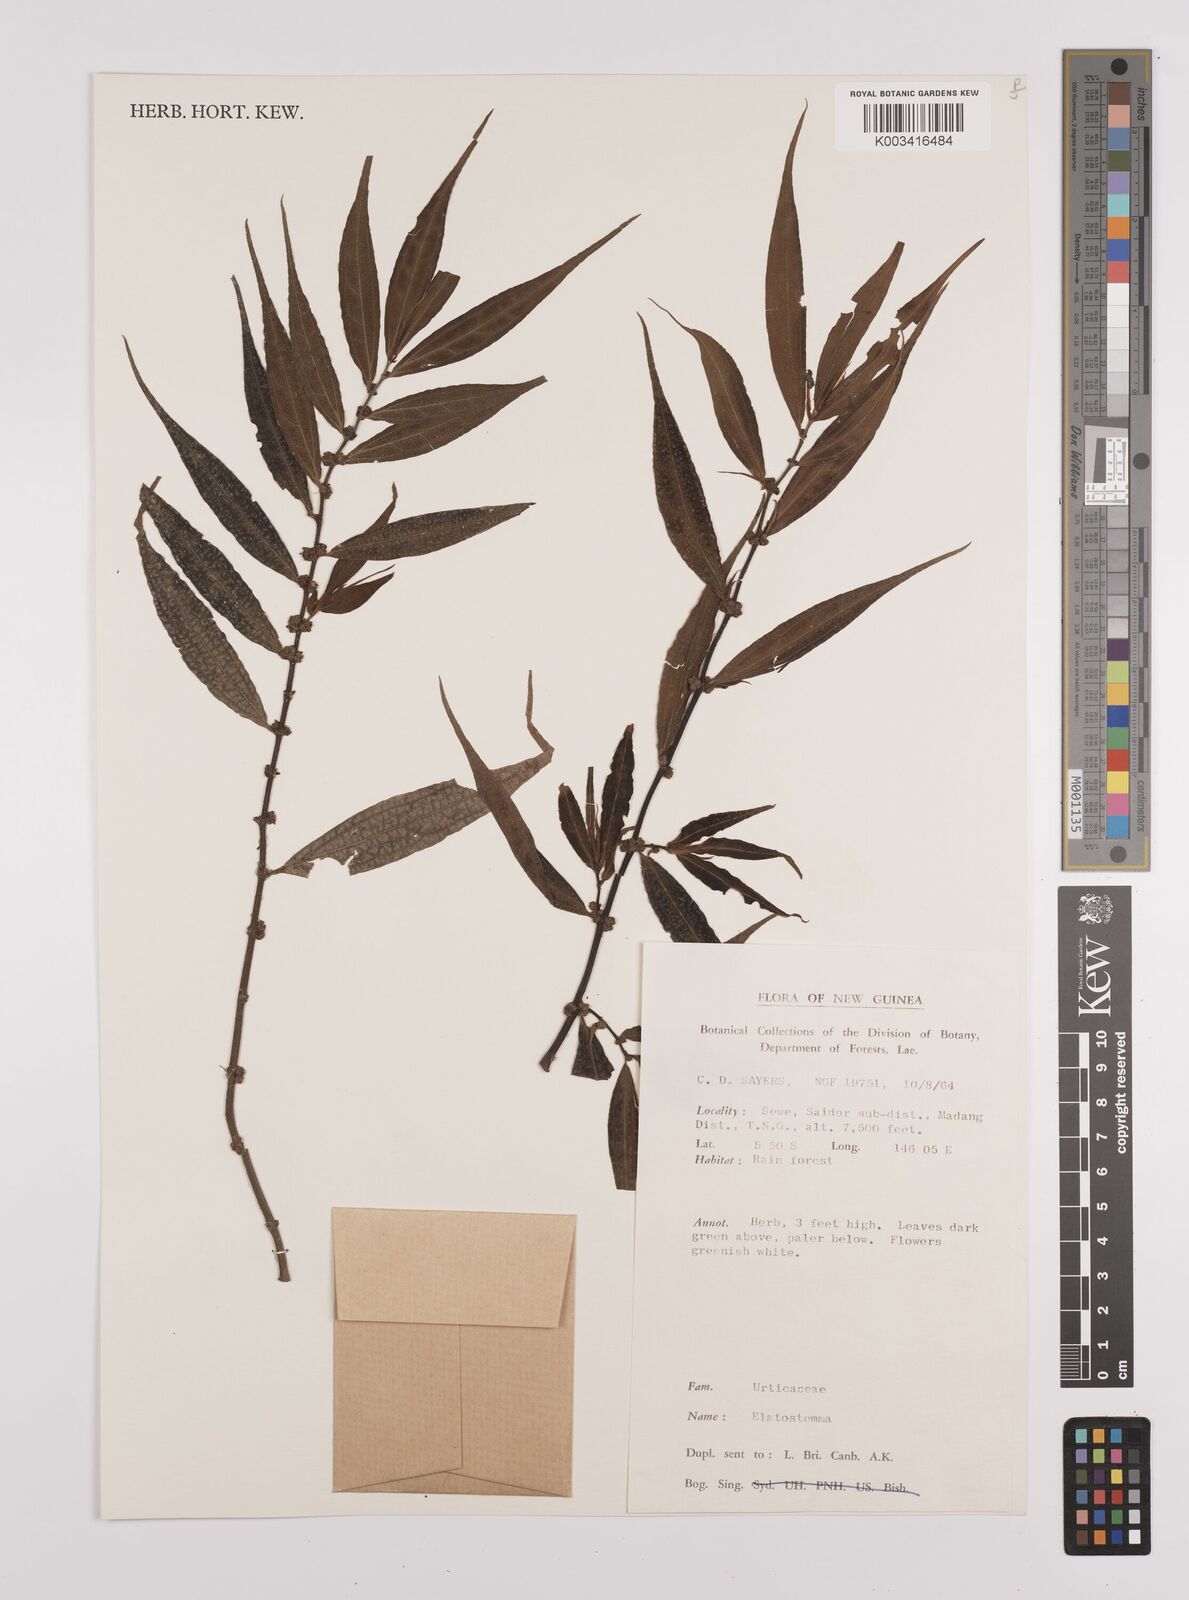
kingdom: Plantae
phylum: Tracheophyta
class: Magnoliopsida
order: Rosales
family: Urticaceae
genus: Elatostema
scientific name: Elatostema
